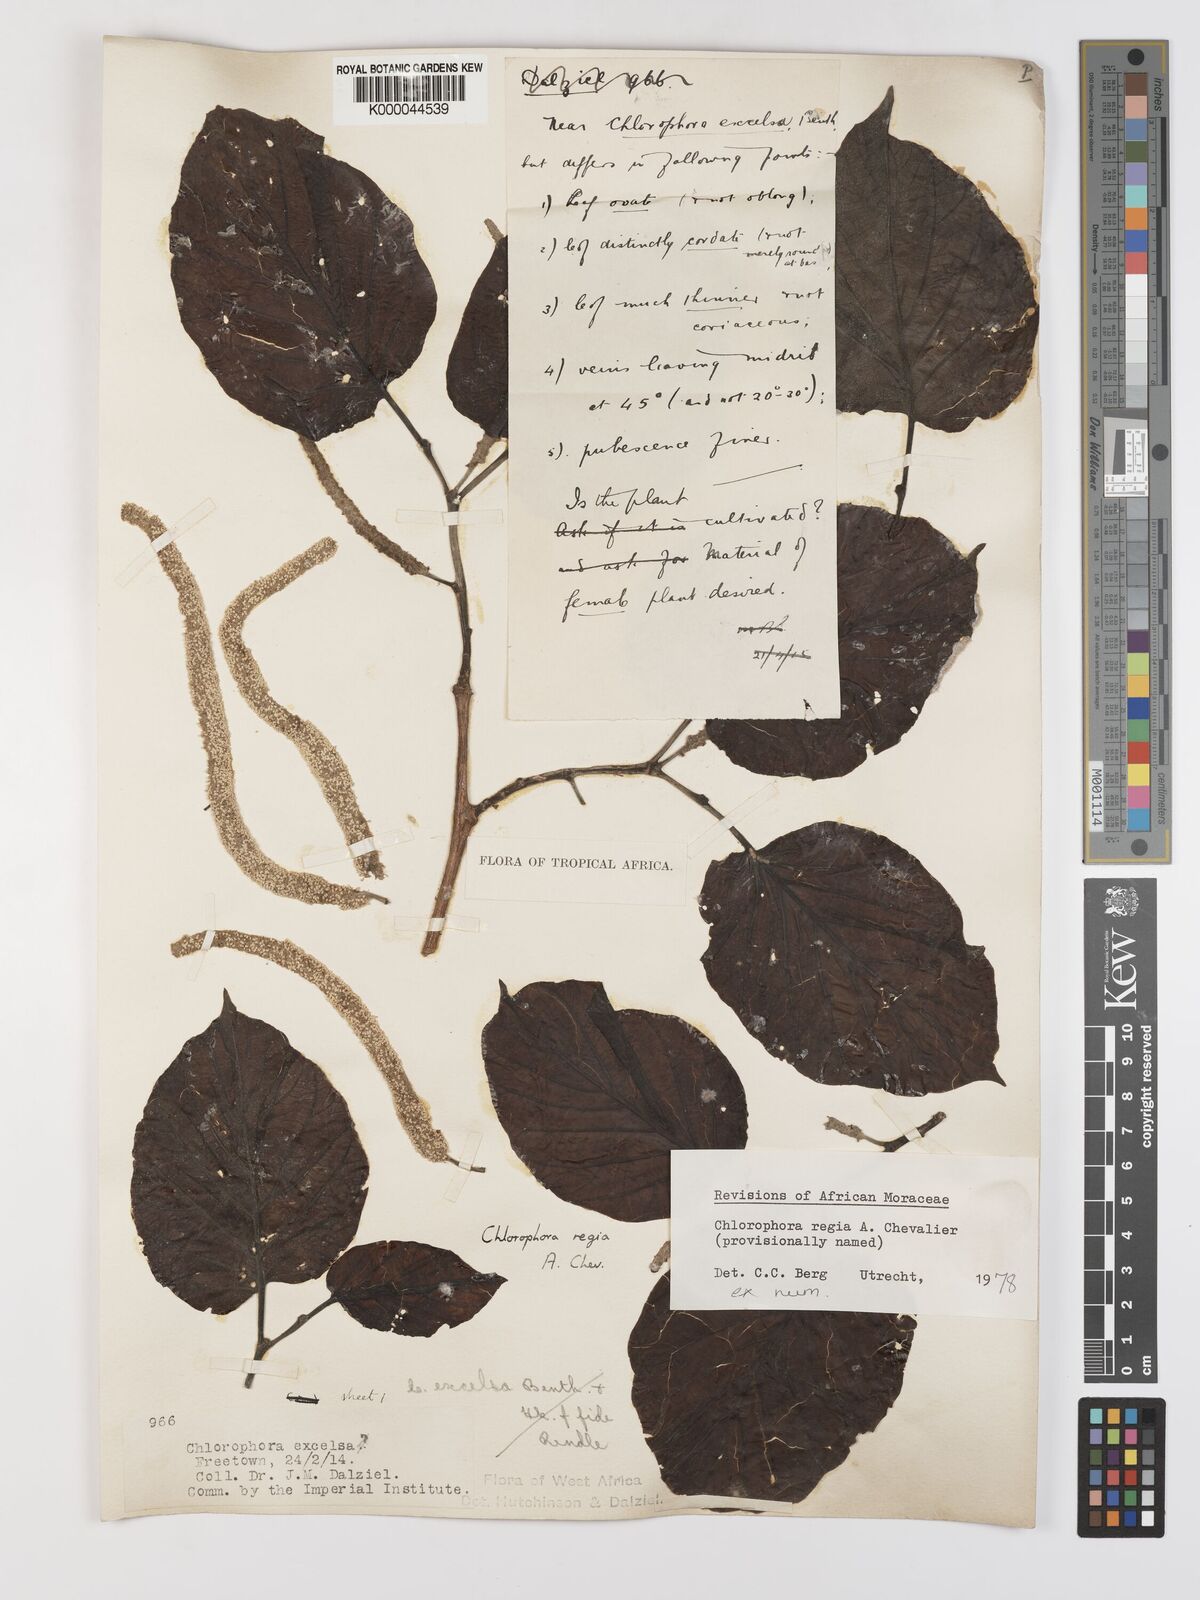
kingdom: Plantae
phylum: Tracheophyta
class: Magnoliopsida
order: Rosales
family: Moraceae
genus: Milicia
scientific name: Milicia regia
